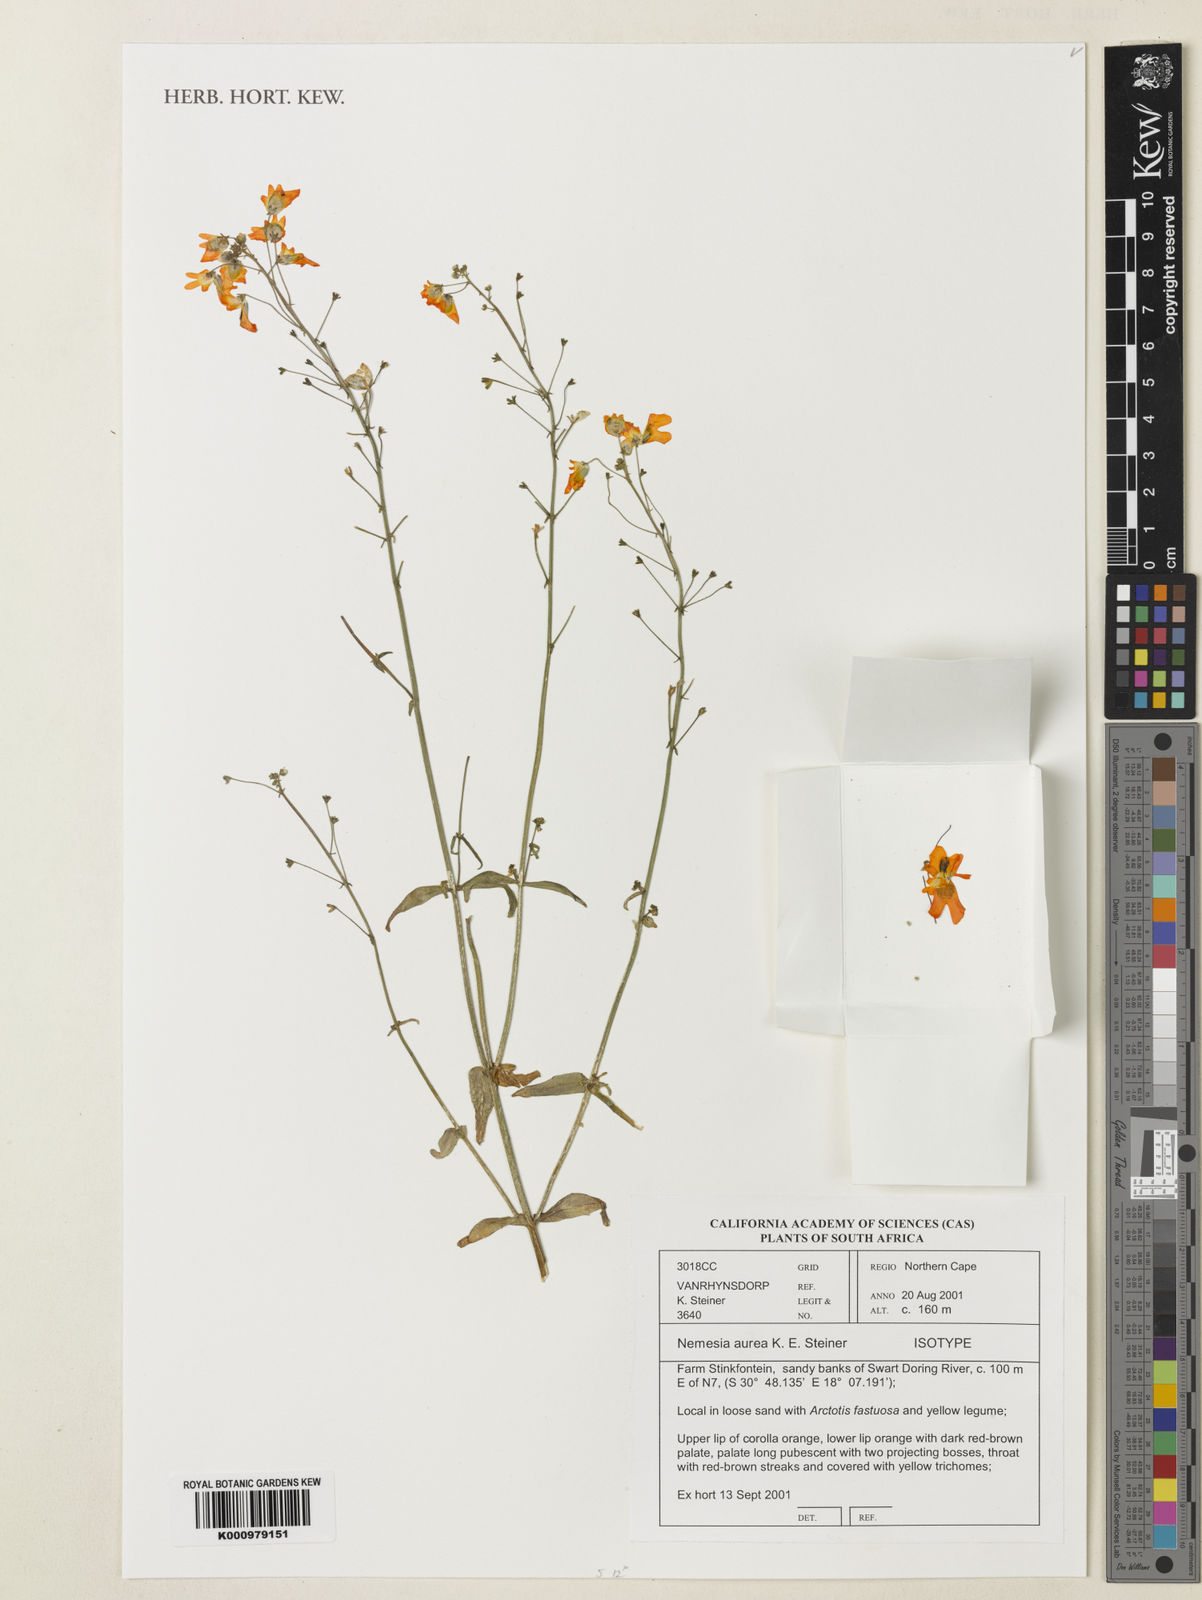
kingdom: Plantae
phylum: Tracheophyta
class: Magnoliopsida
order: Lamiales
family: Scrophulariaceae
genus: Nemesia
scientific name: Nemesia aurantia
